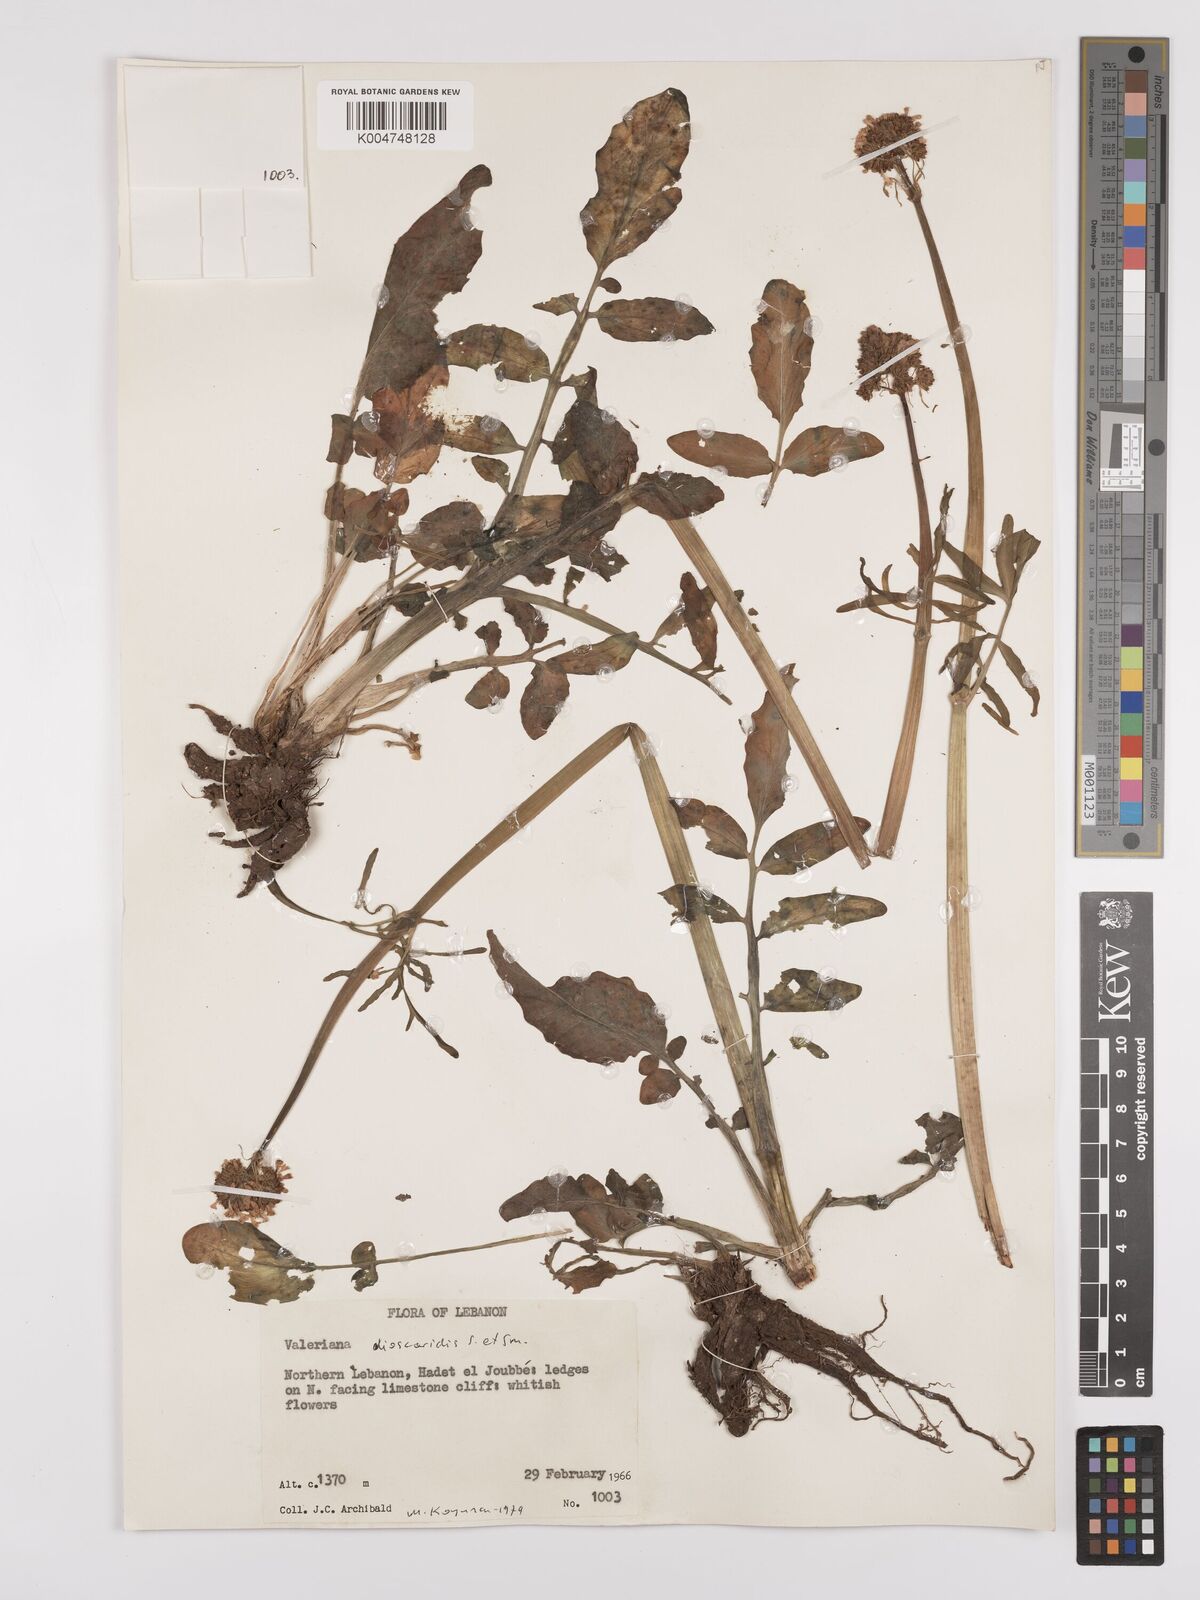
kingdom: Plantae
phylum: Tracheophyta
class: Magnoliopsida
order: Dipsacales
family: Caprifoliaceae
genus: Valeriana
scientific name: Valeriana
